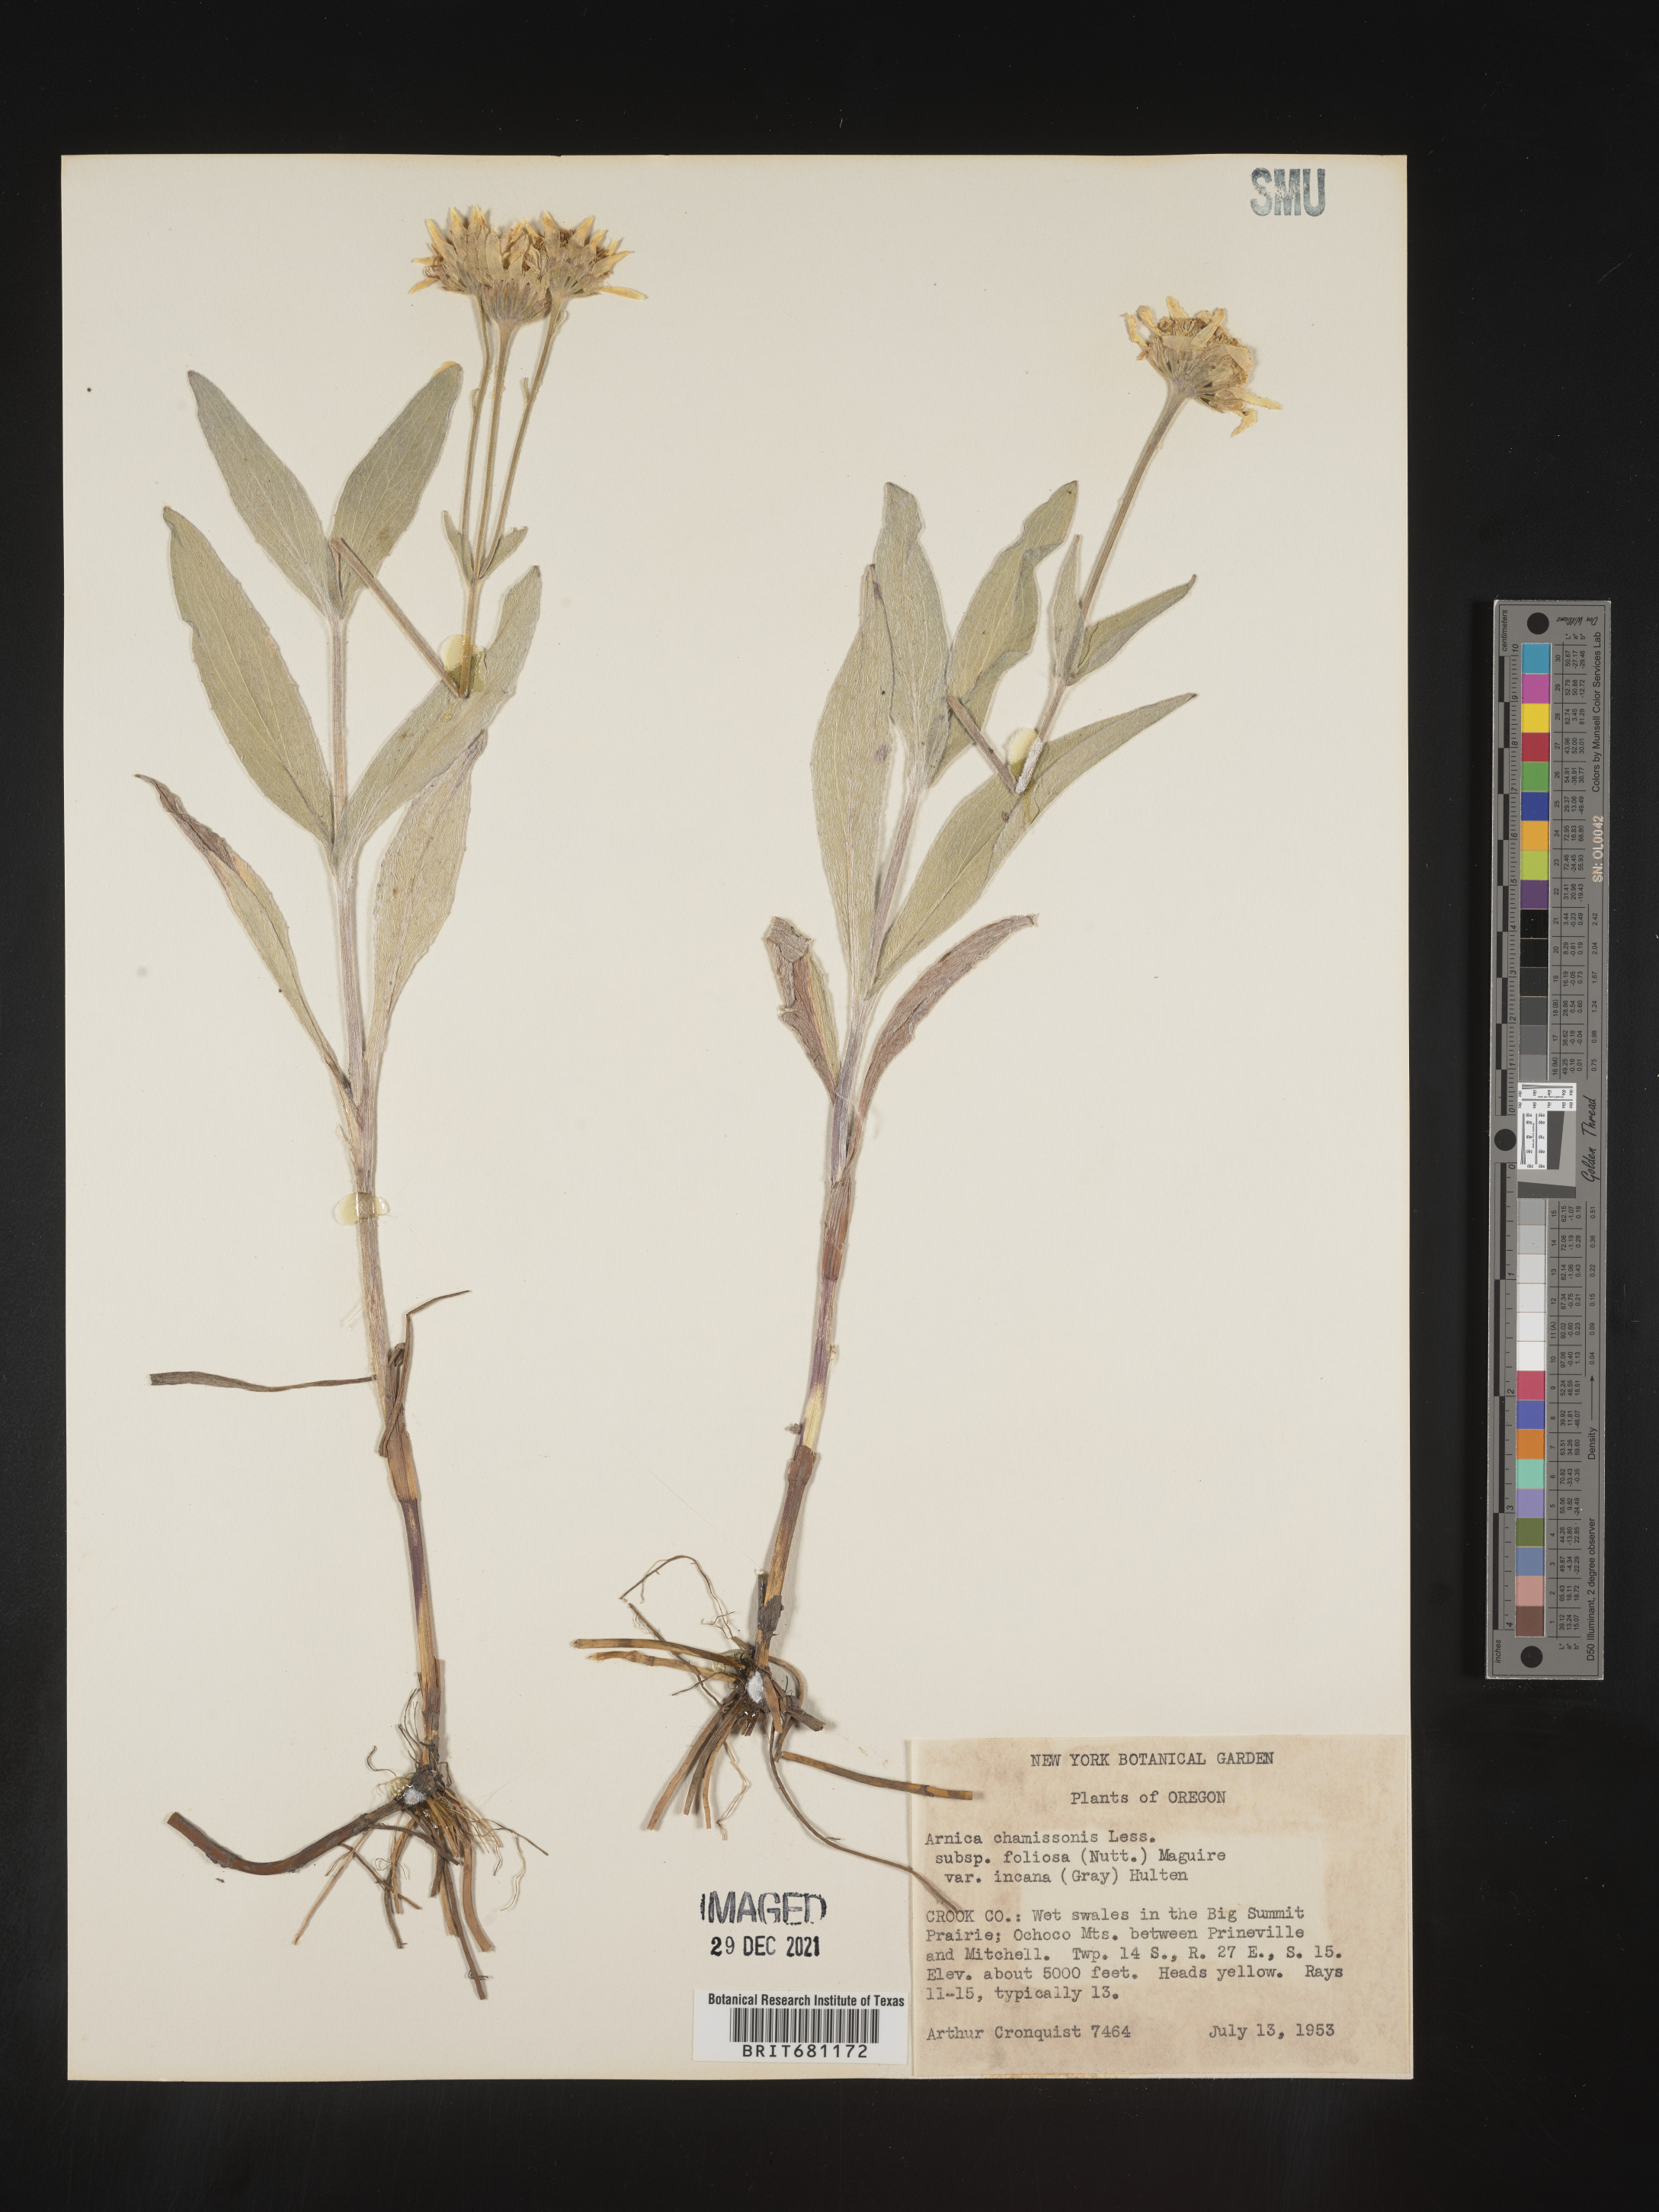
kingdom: Plantae
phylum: Tracheophyta
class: Magnoliopsida
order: Asterales
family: Asteraceae
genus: Arnica
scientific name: Arnica chamissonis
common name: Leafy arnica
